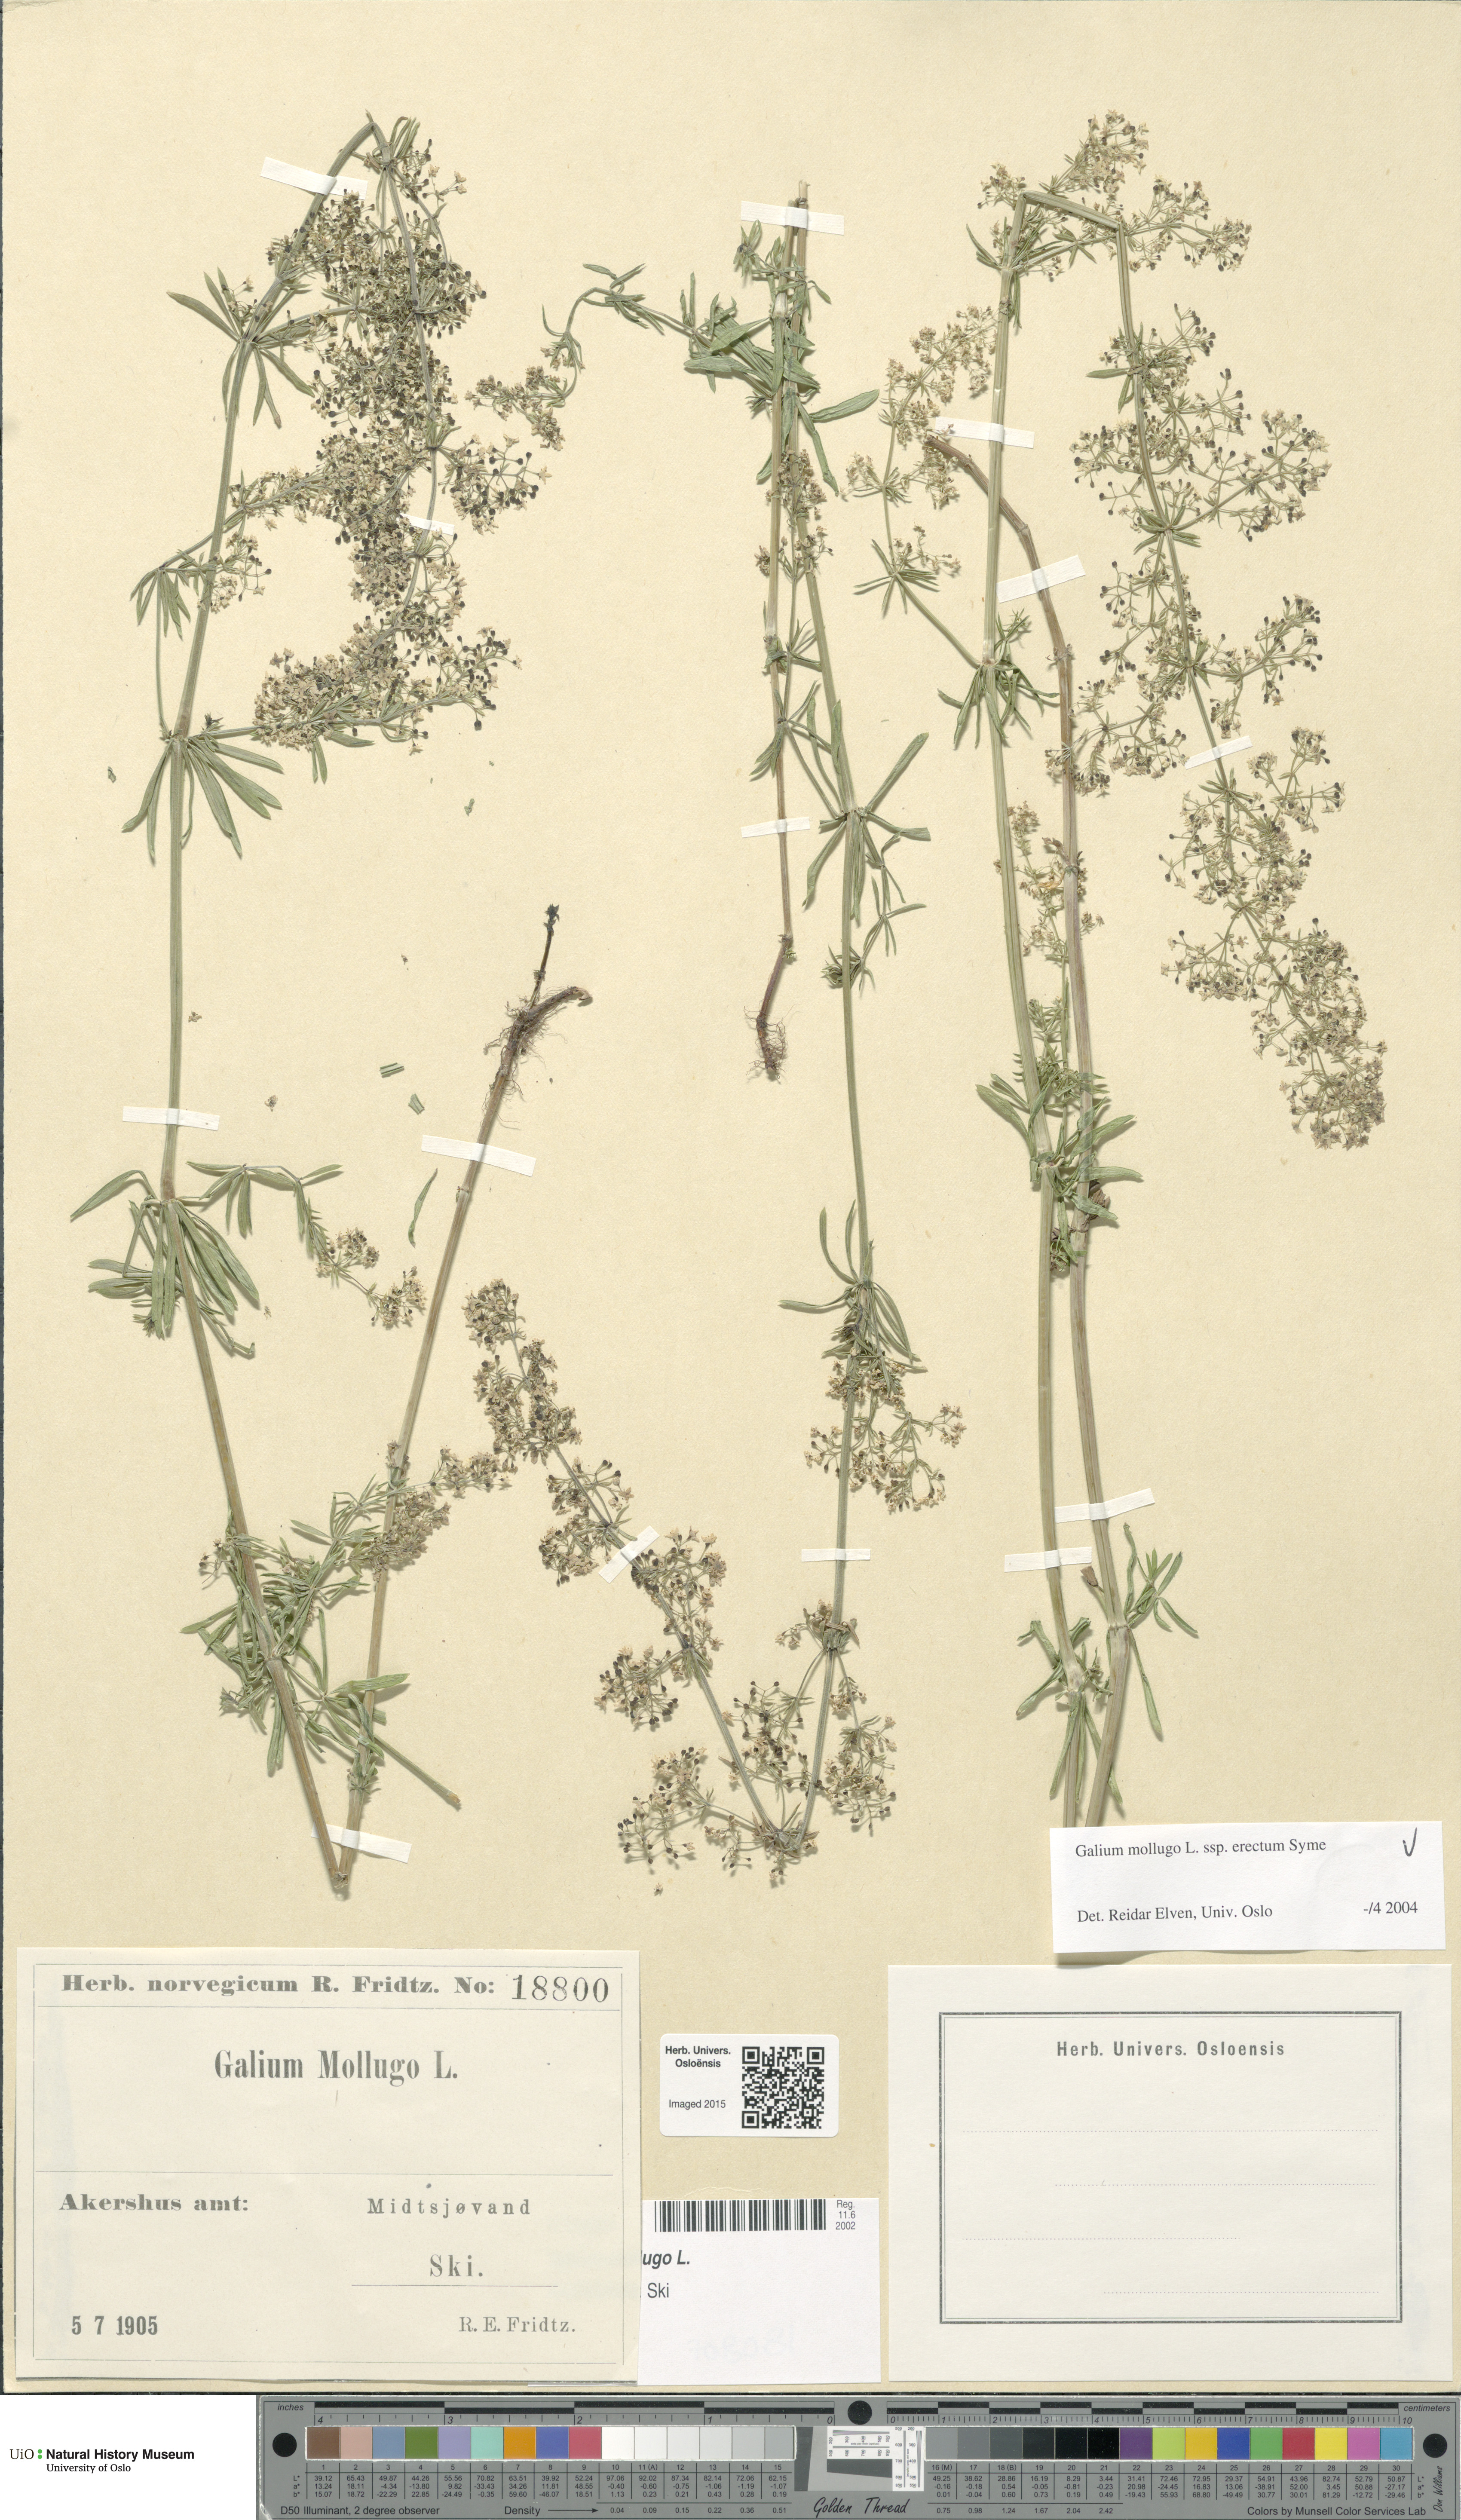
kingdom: Plantae
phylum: Tracheophyta
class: Magnoliopsida
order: Gentianales
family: Rubiaceae
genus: Galium
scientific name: Galium album
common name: White bedstraw
